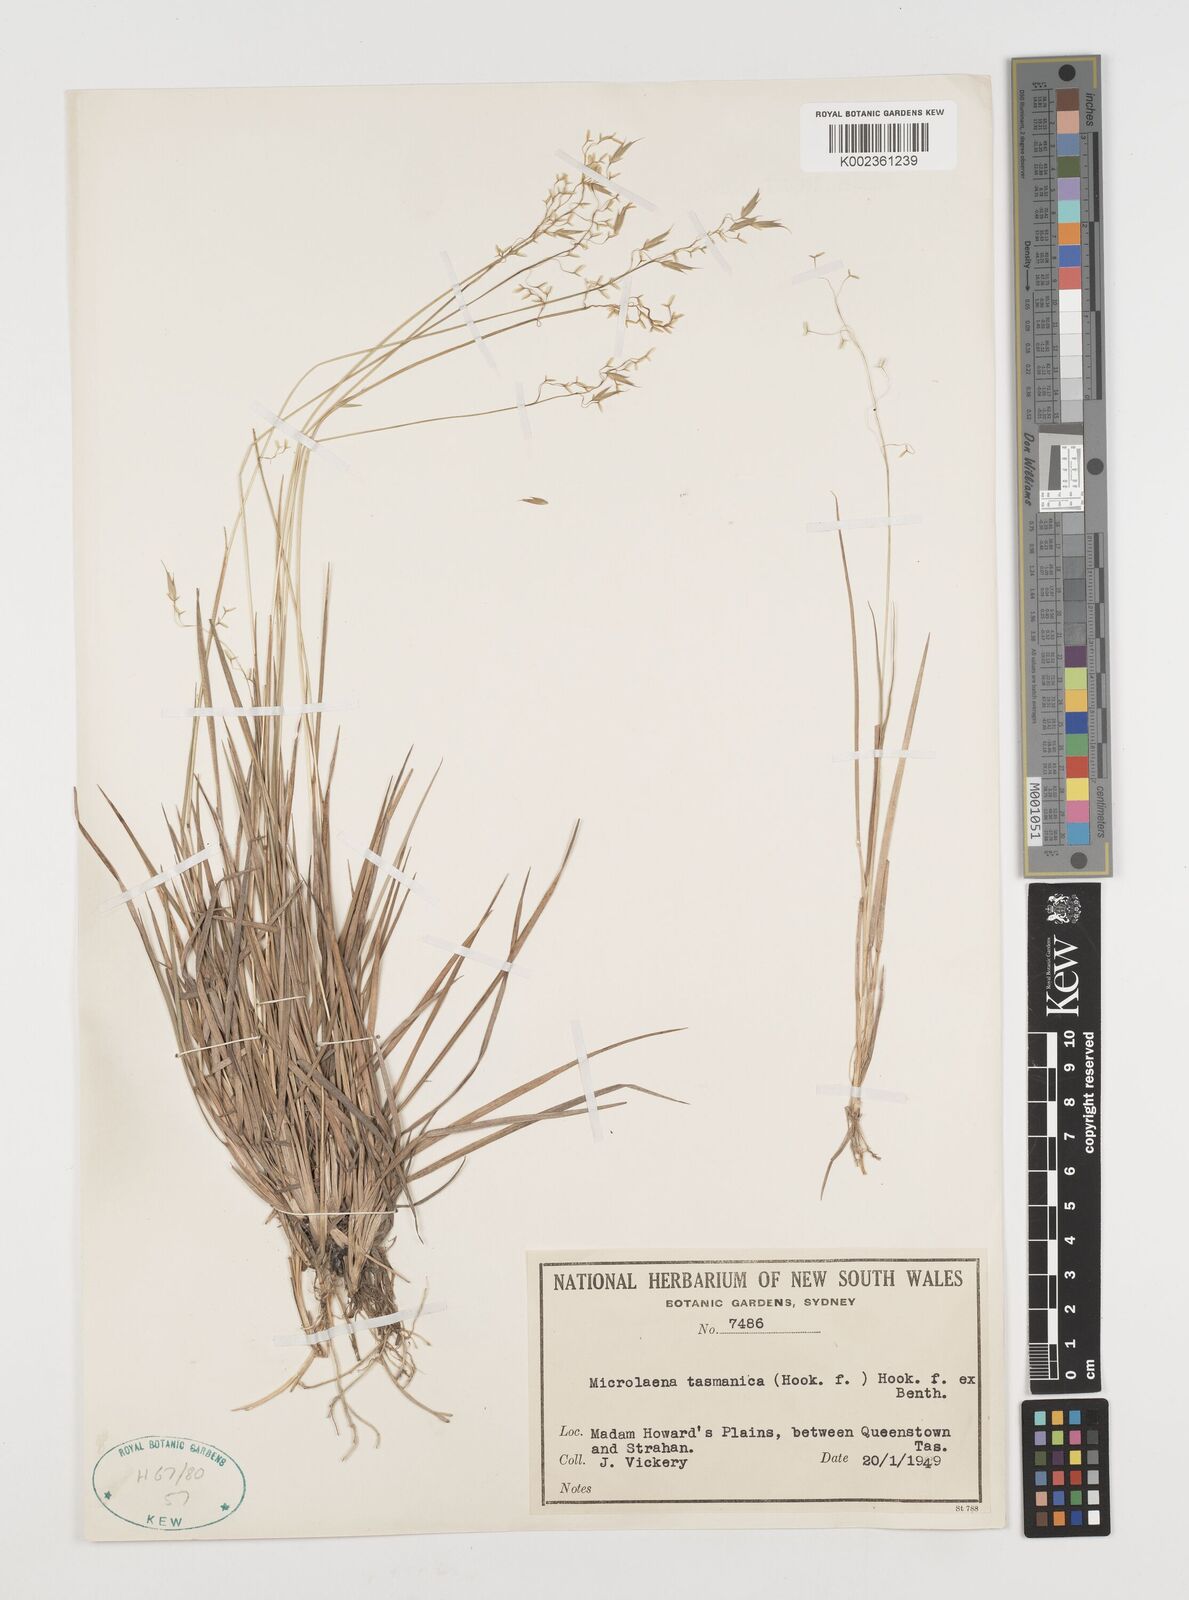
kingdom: Plantae
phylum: Tracheophyta
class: Liliopsida
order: Poales
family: Poaceae
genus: Microlaena
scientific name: Microlaena tasmanica
